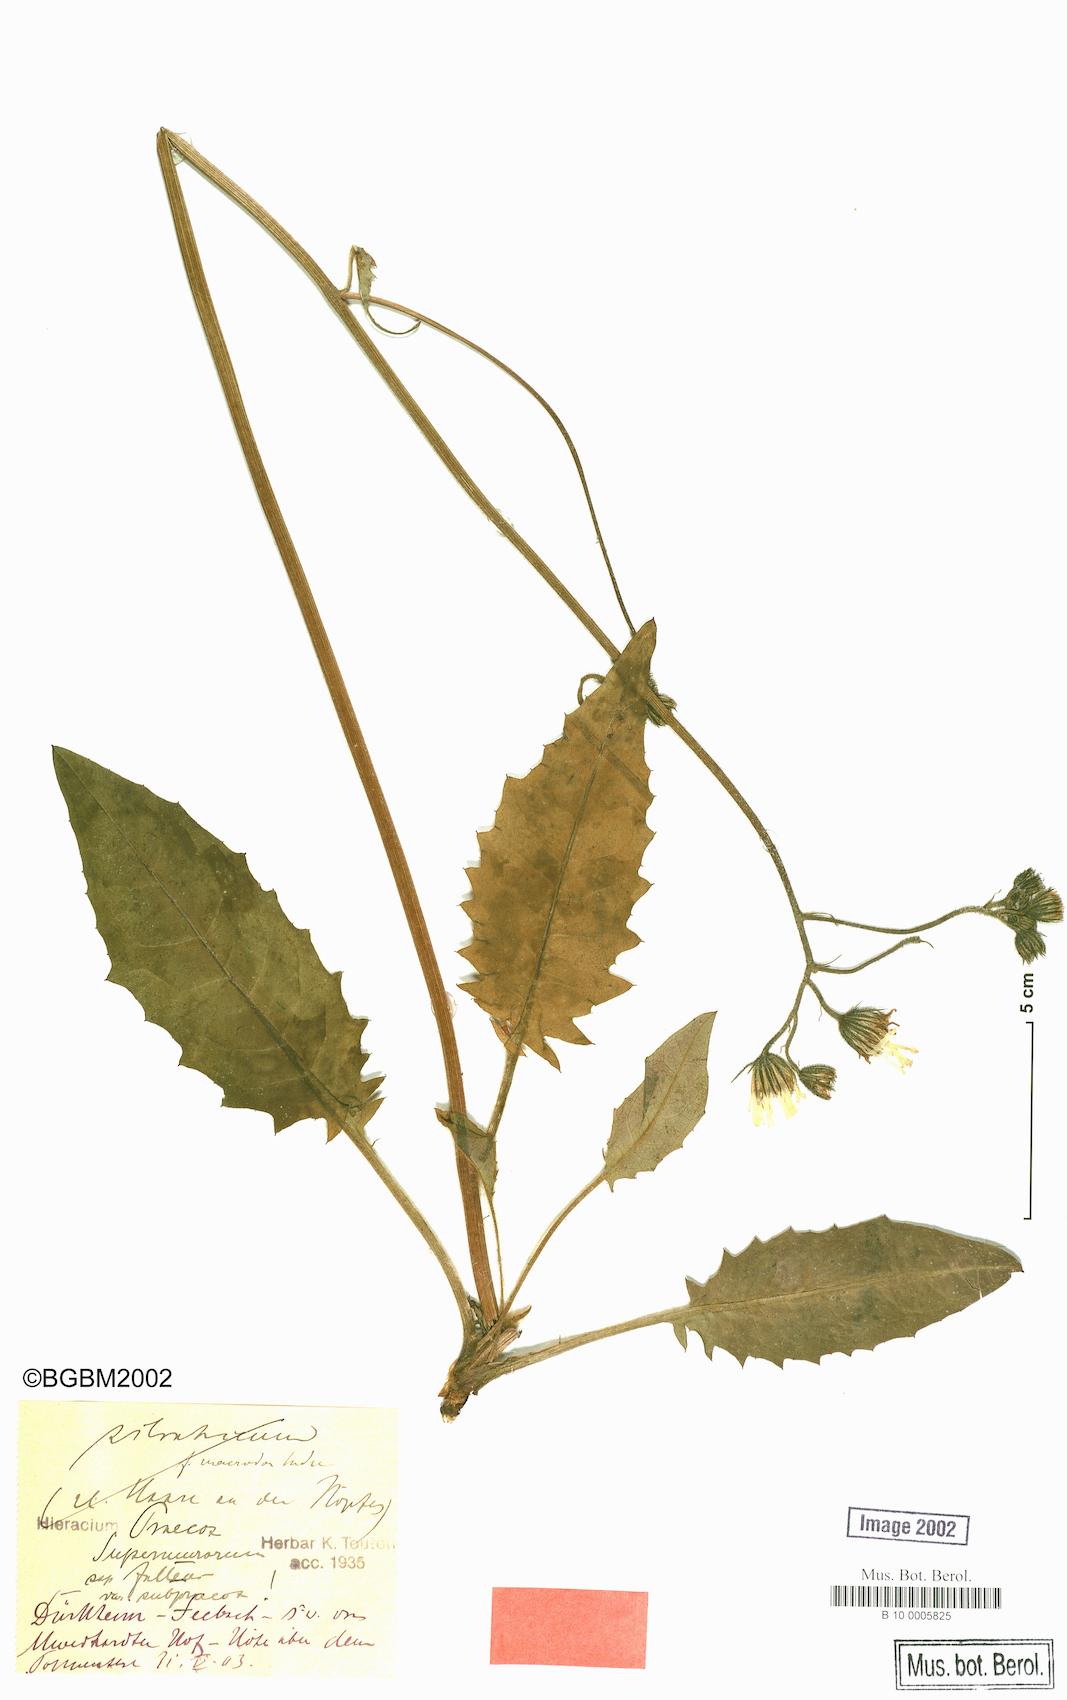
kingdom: Plantae
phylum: Tracheophyta
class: Magnoliopsida
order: Asterales
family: Asteraceae
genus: Hieracium
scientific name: Hieracium praecox
